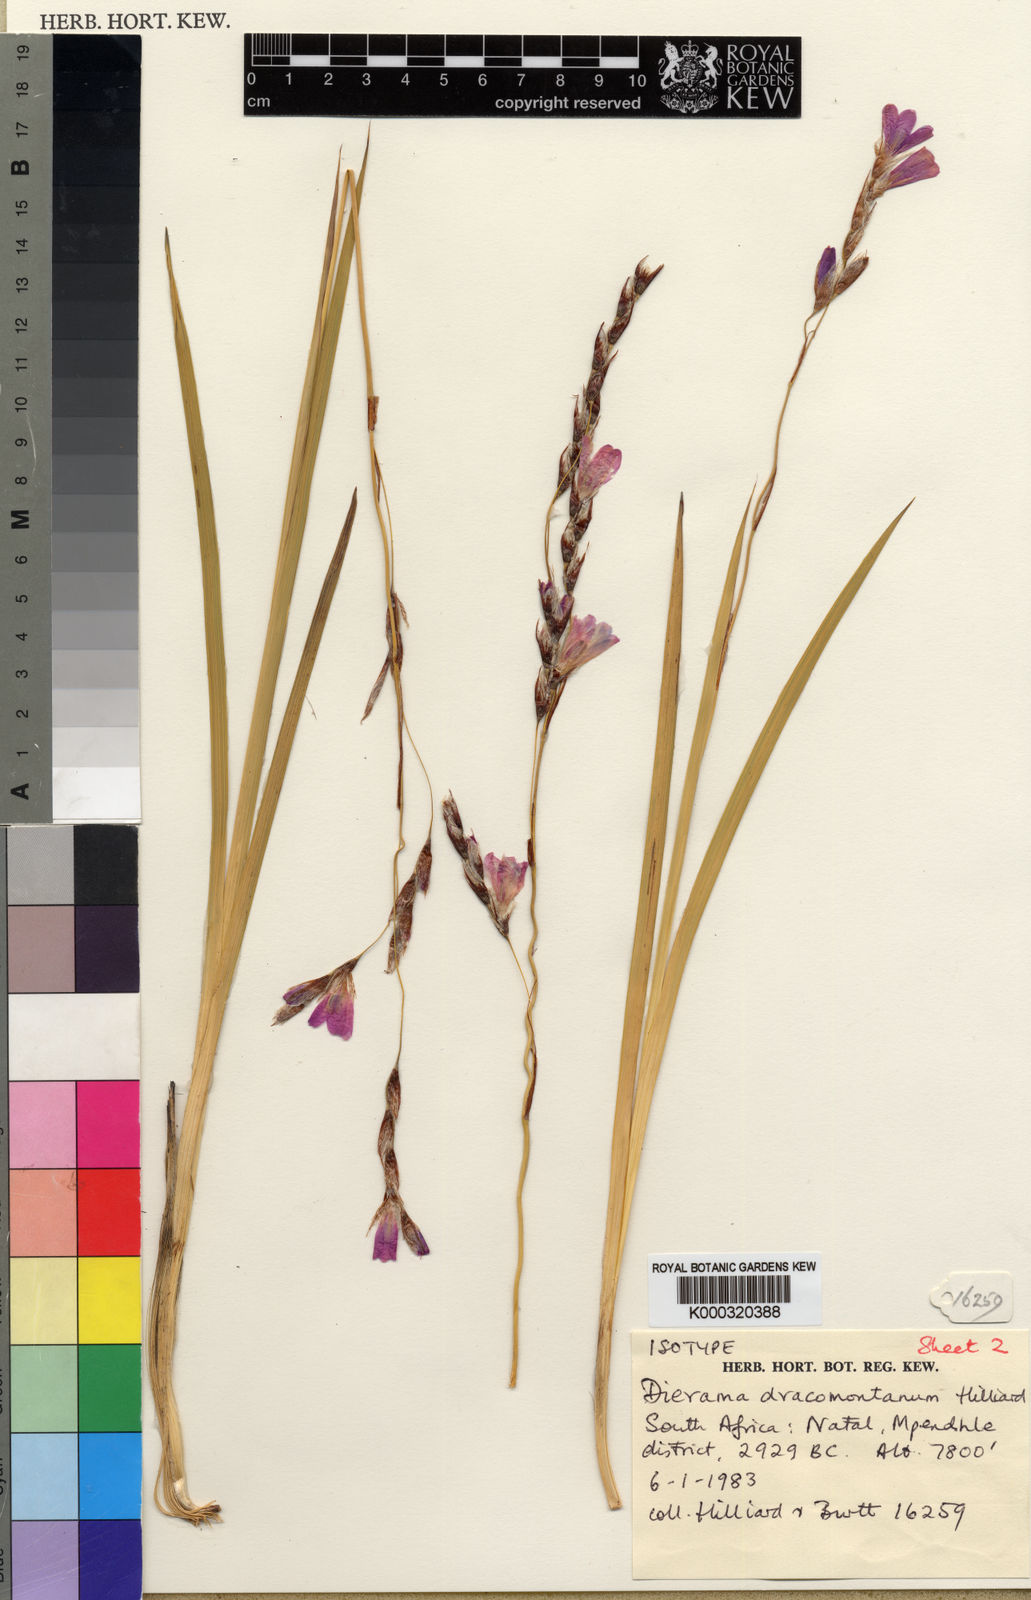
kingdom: Plantae
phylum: Tracheophyta
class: Liliopsida
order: Asparagales
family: Iridaceae
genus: Dierama
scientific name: Dierama dracomontanum
